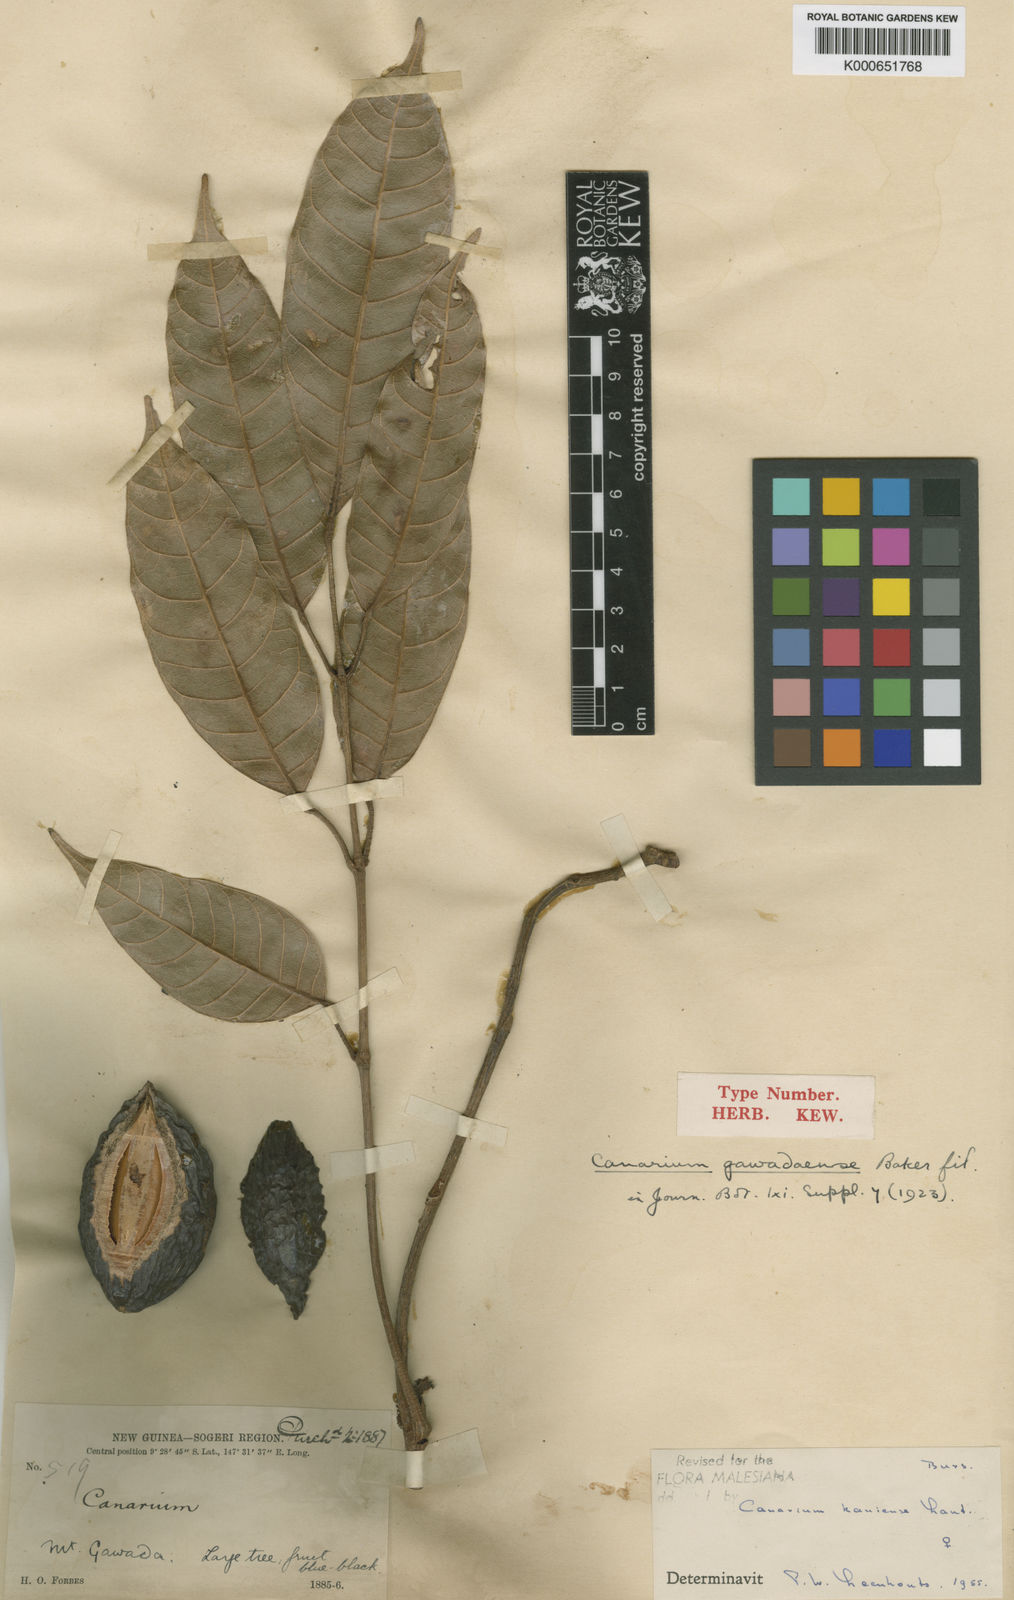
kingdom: Plantae
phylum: Tracheophyta
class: Magnoliopsida
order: Sapindales
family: Burseraceae
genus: Canarium
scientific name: Canarium kaniense
